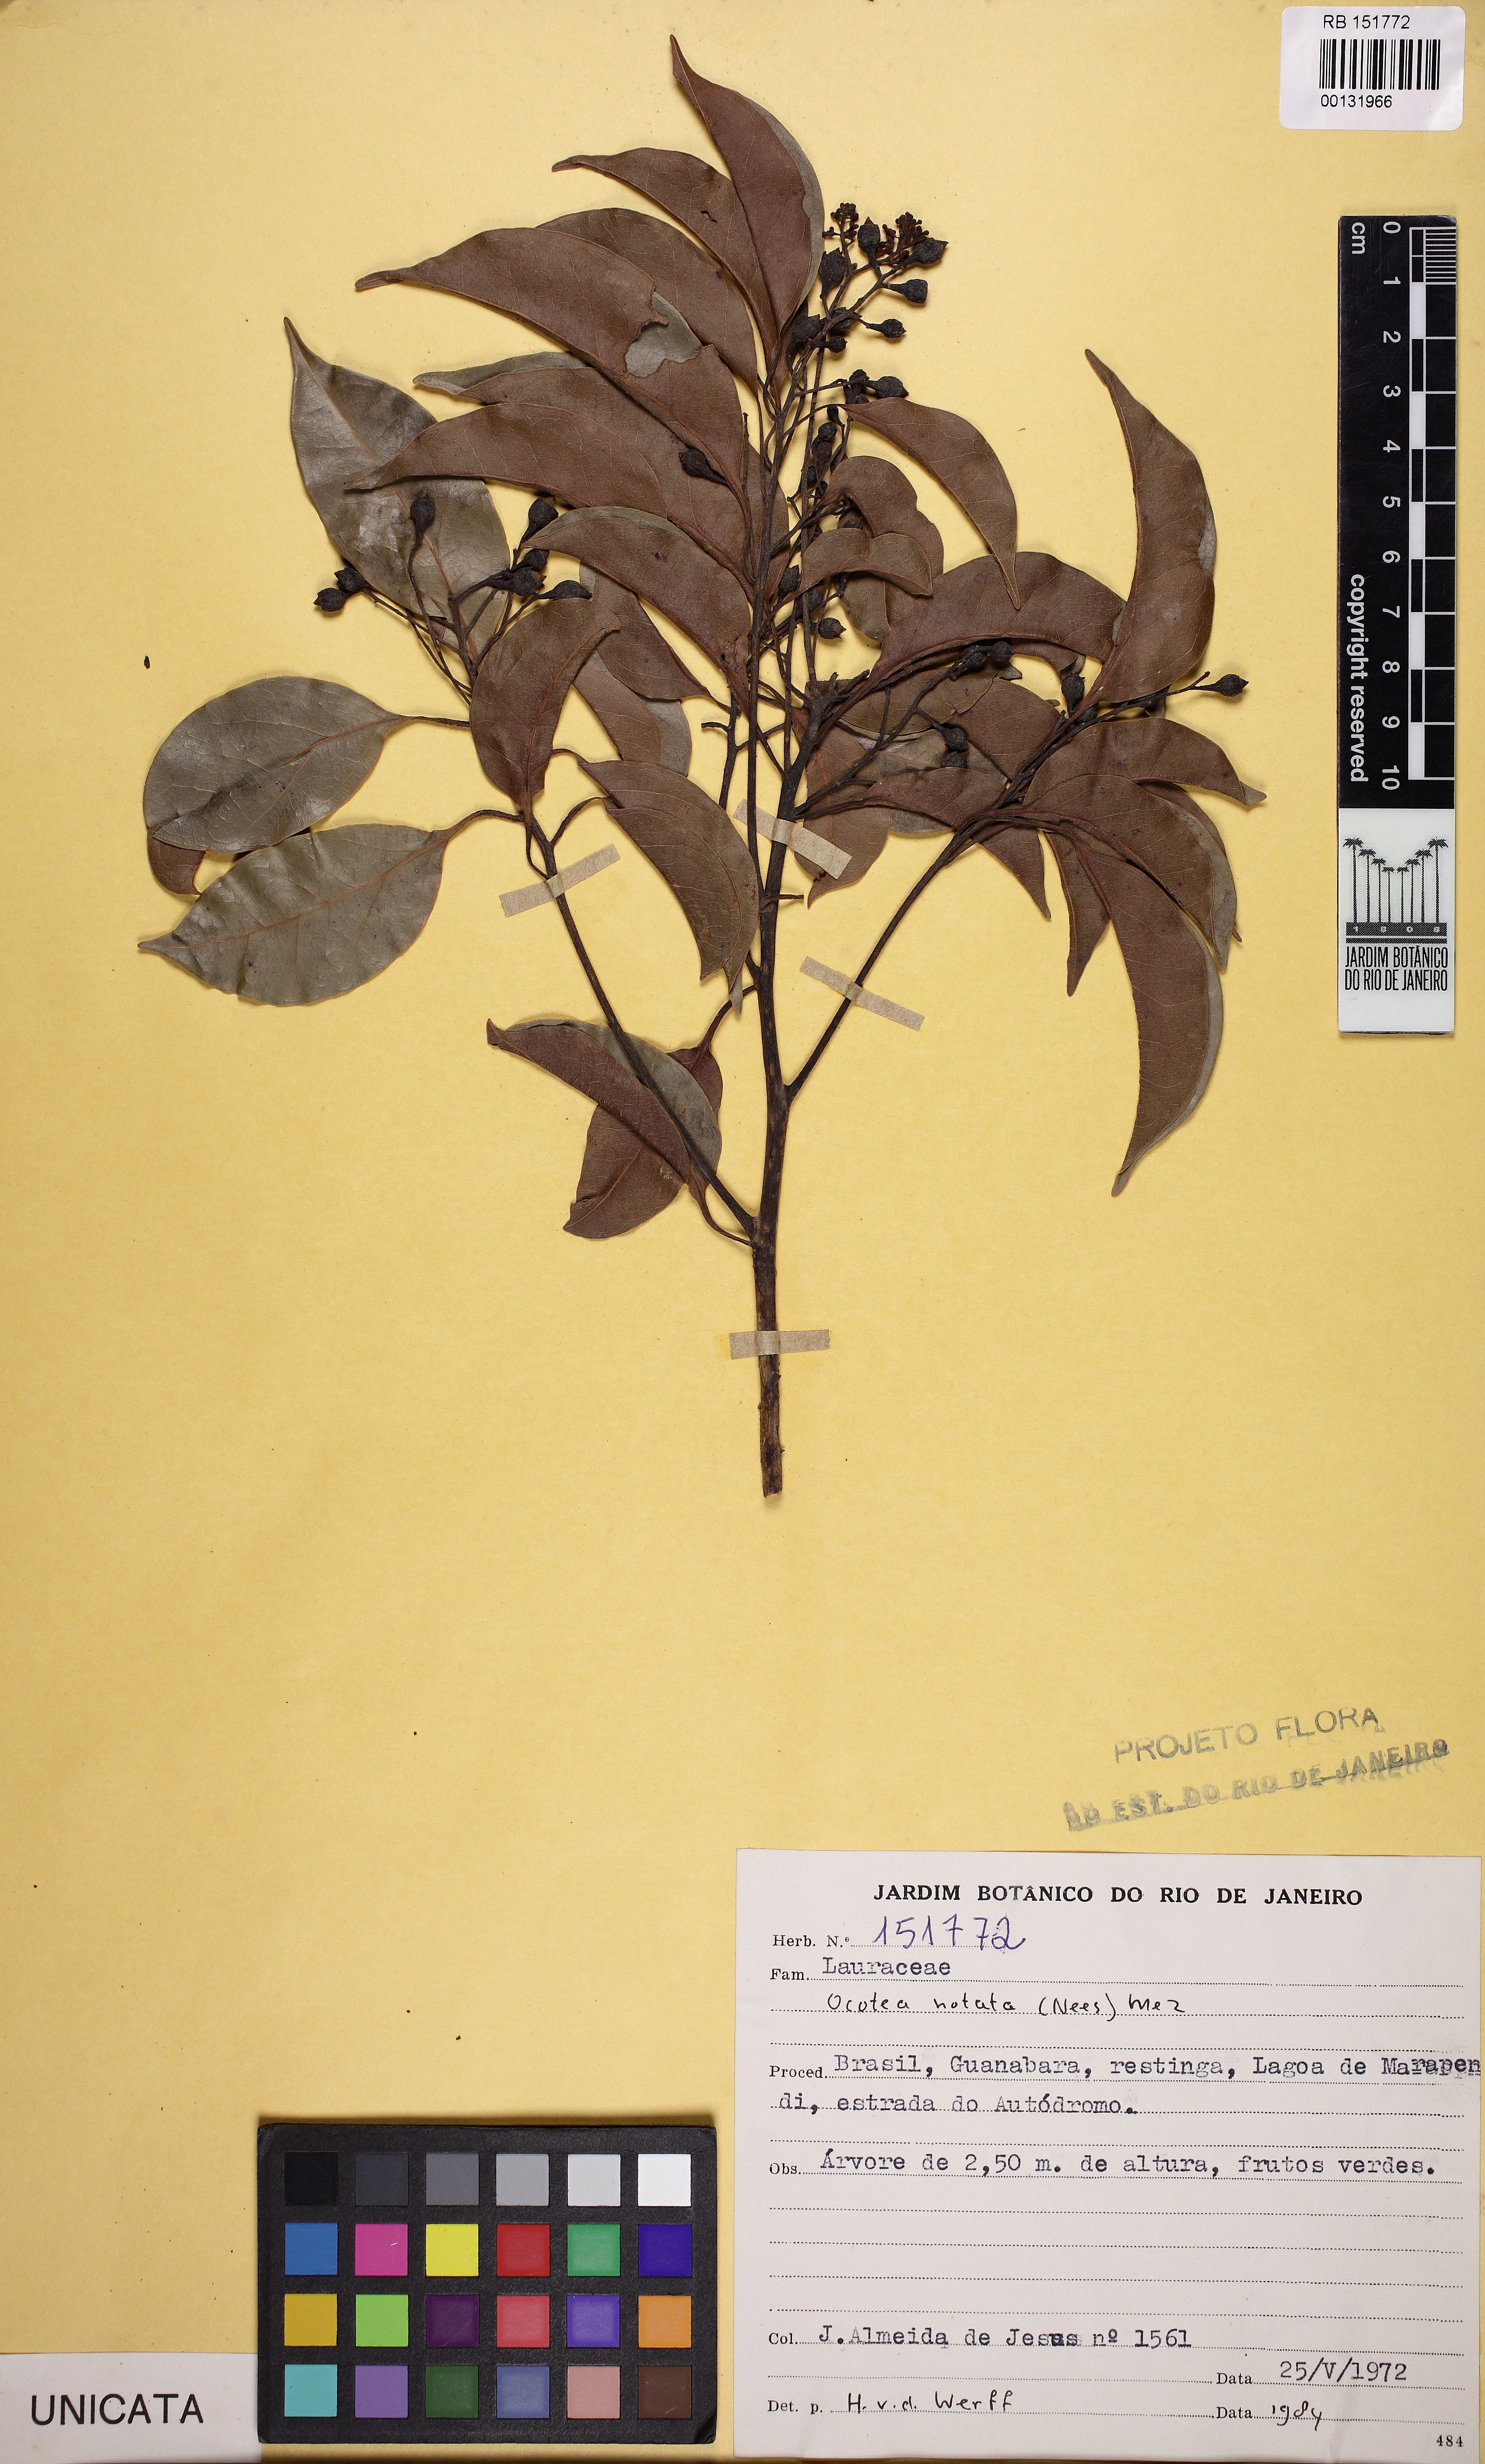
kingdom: Plantae
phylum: Tracheophyta
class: Magnoliopsida
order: Laurales
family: Lauraceae
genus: Mespilodaphne
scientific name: Mespilodaphne notata
